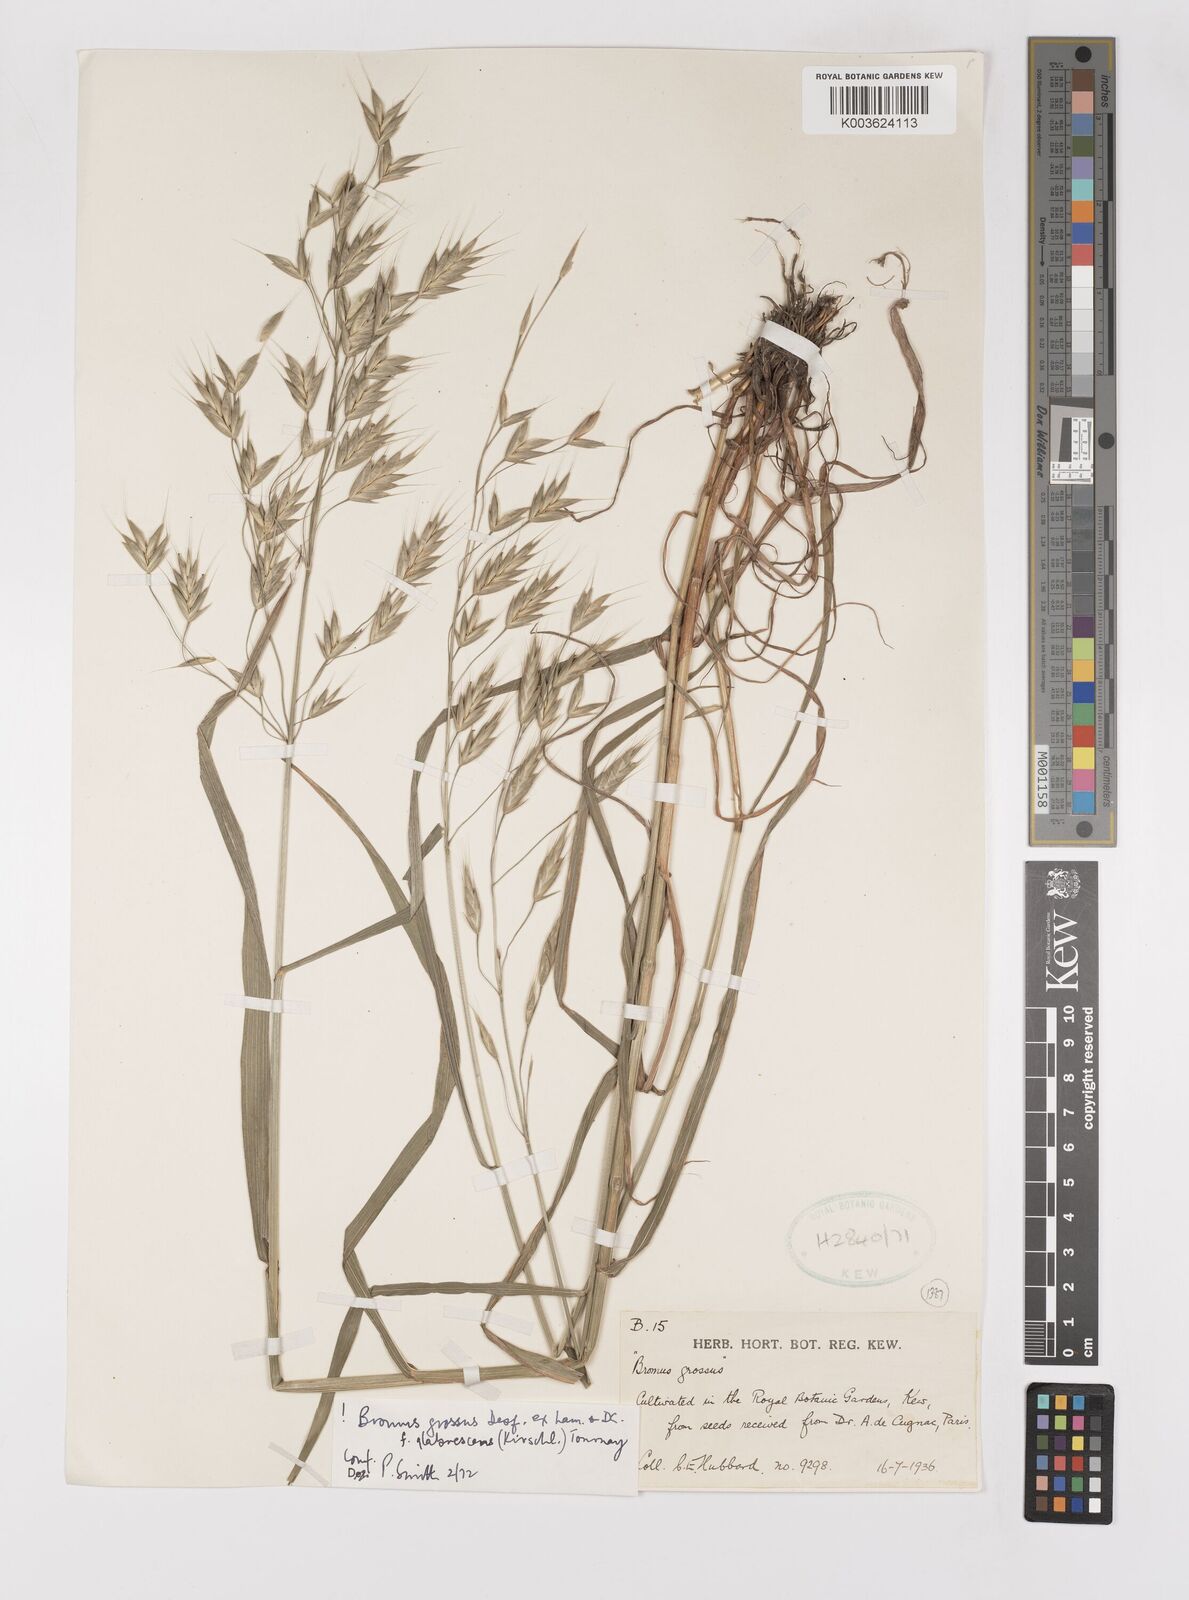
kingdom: Plantae
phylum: Tracheophyta
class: Liliopsida
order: Poales
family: Poaceae
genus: Bromus
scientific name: Bromus grossus
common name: Whiskered brome
